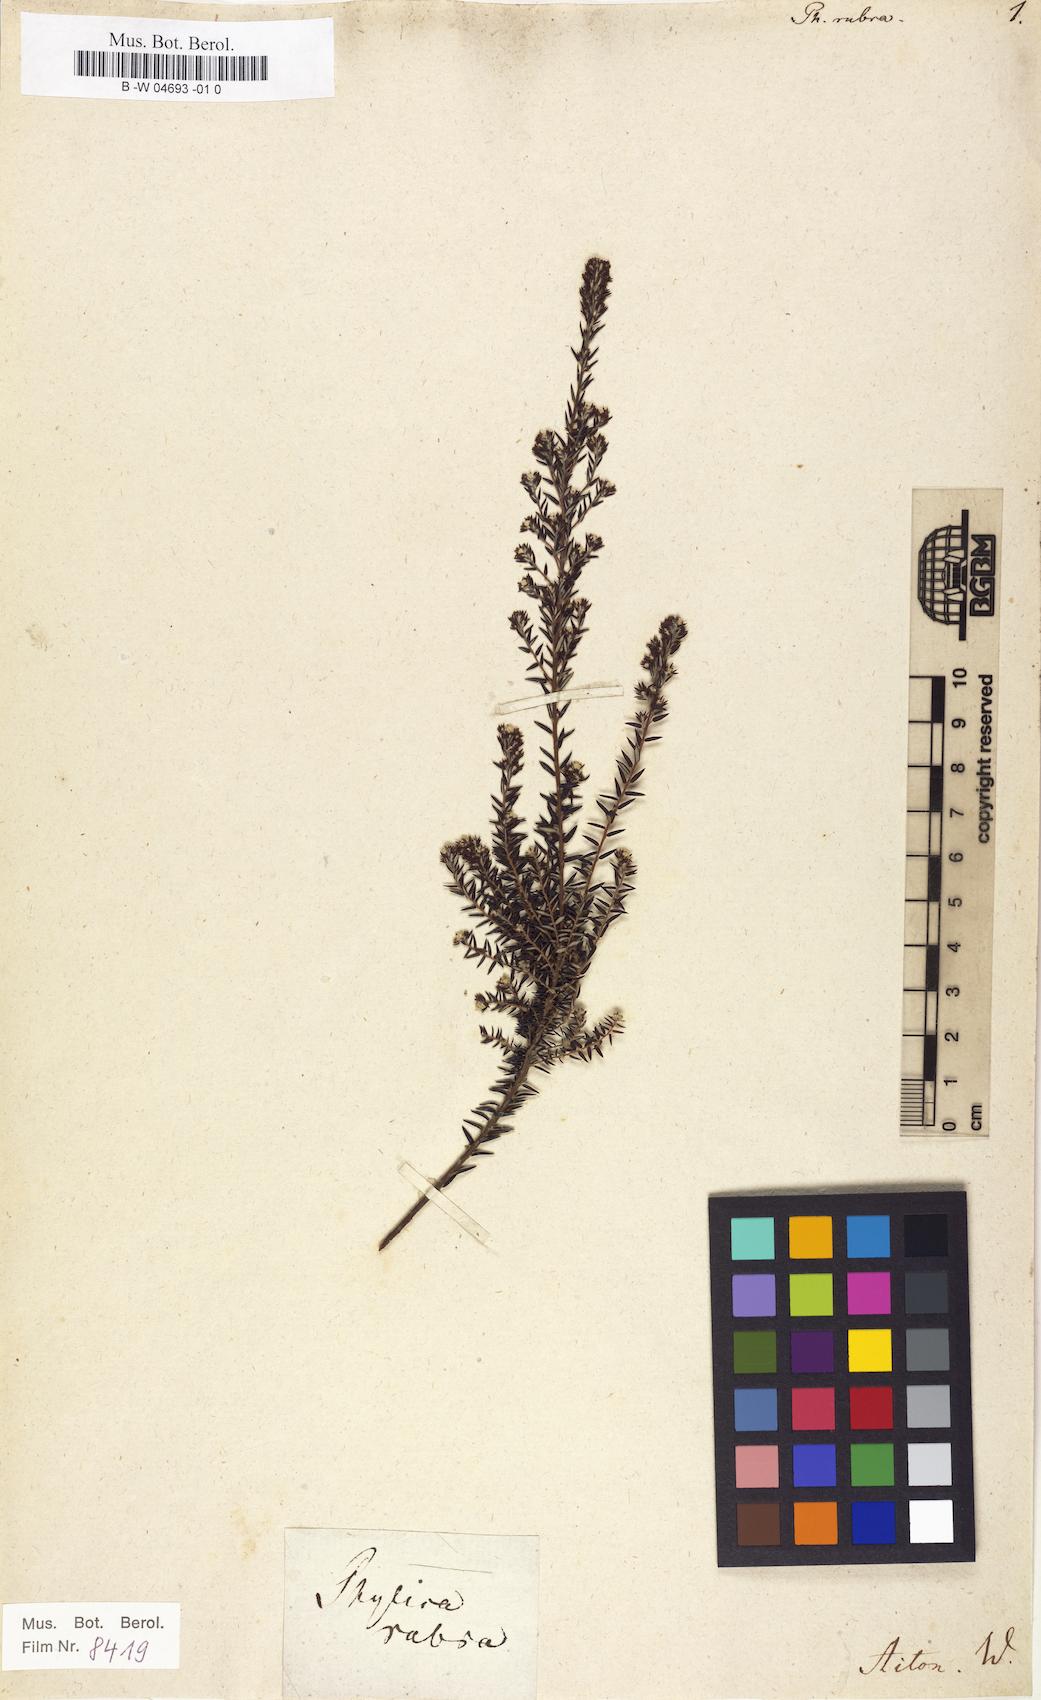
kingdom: Plantae
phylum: Tracheophyta
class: Magnoliopsida
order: Rosales
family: Rhamnaceae
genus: Phylica
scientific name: Phylica rubra
